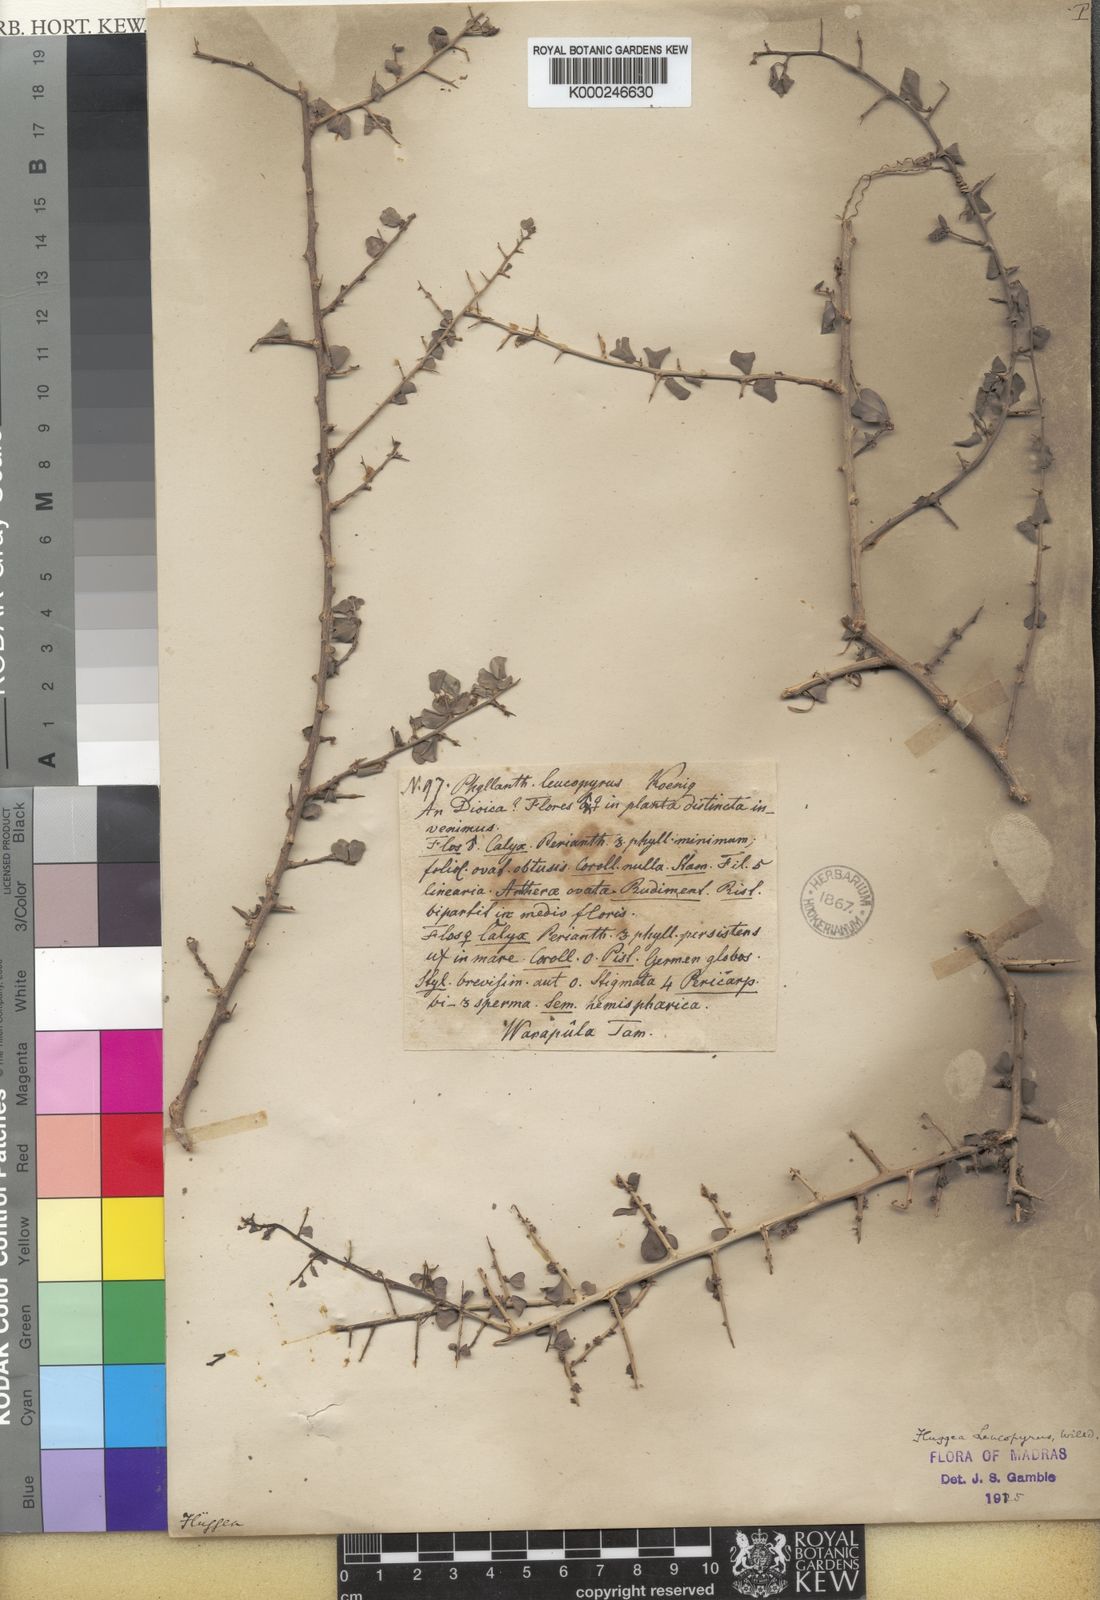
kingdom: Plantae
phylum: Tracheophyta
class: Magnoliopsida
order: Malpighiales
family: Phyllanthaceae
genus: Flueggea
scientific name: Flueggea leucopyrus
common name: Bushweed
